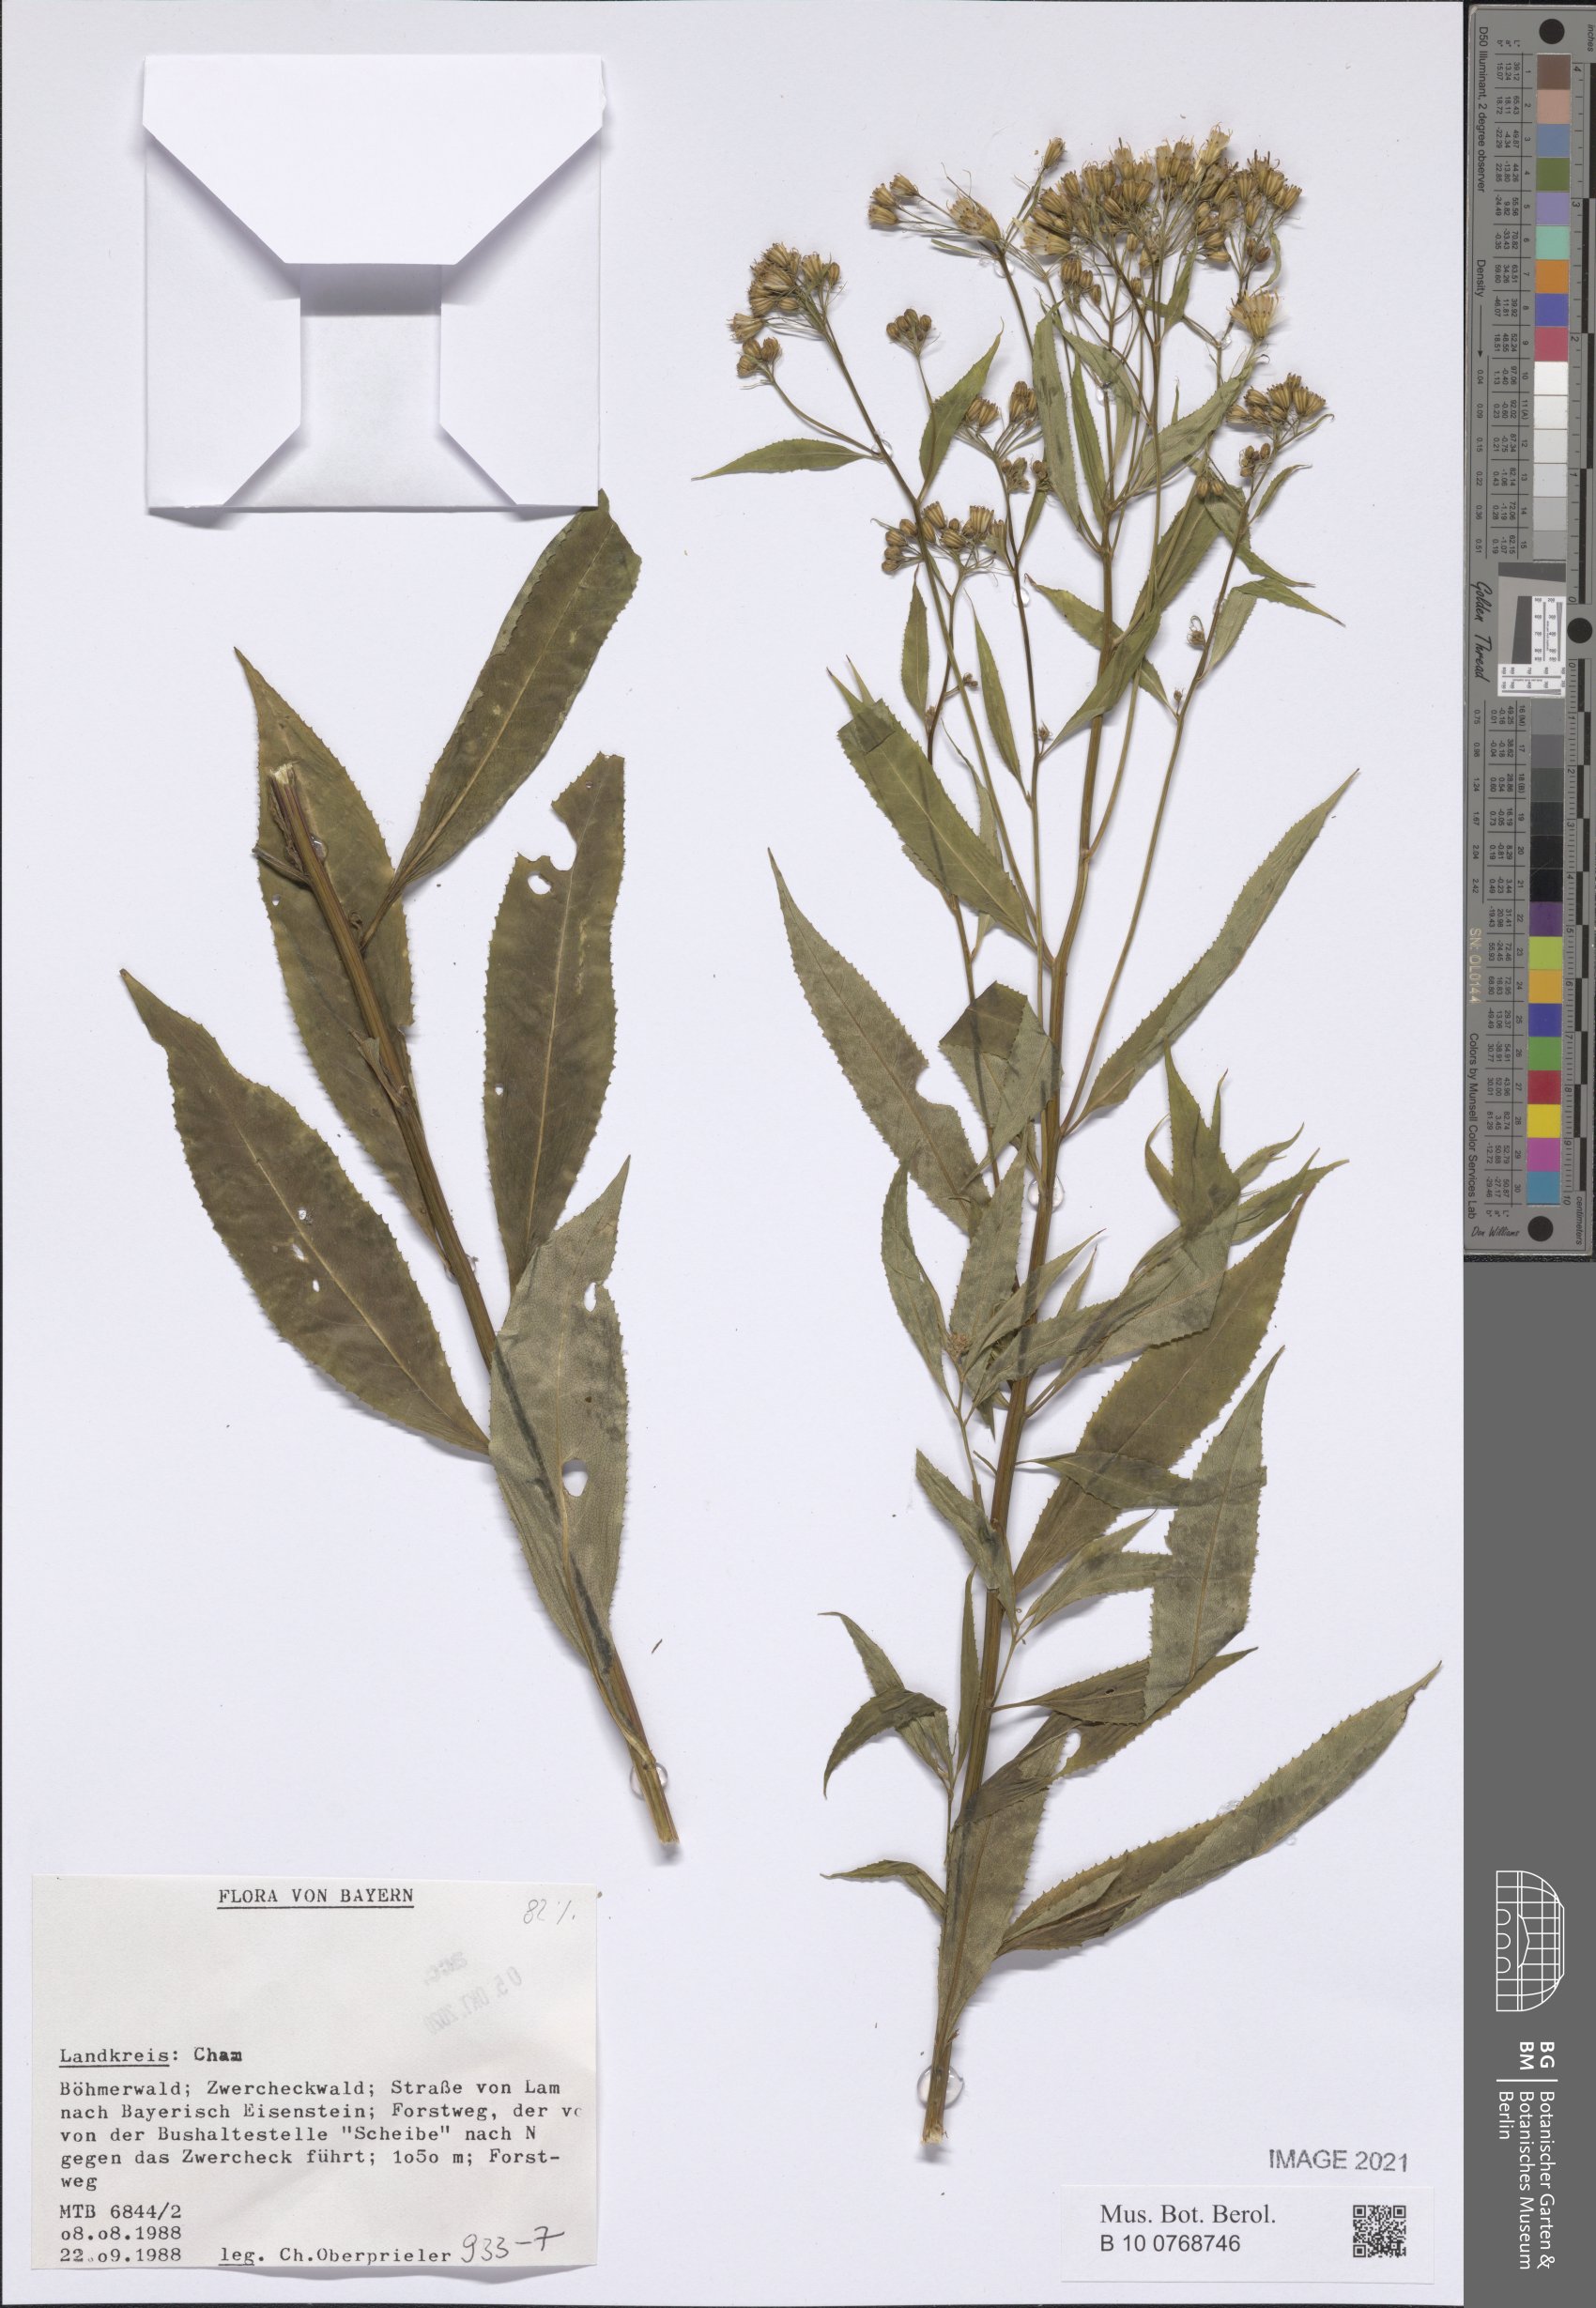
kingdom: Plantae
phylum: Tracheophyta
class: Magnoliopsida
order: Asterales
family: Asteraceae
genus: Senecio
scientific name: Senecio
